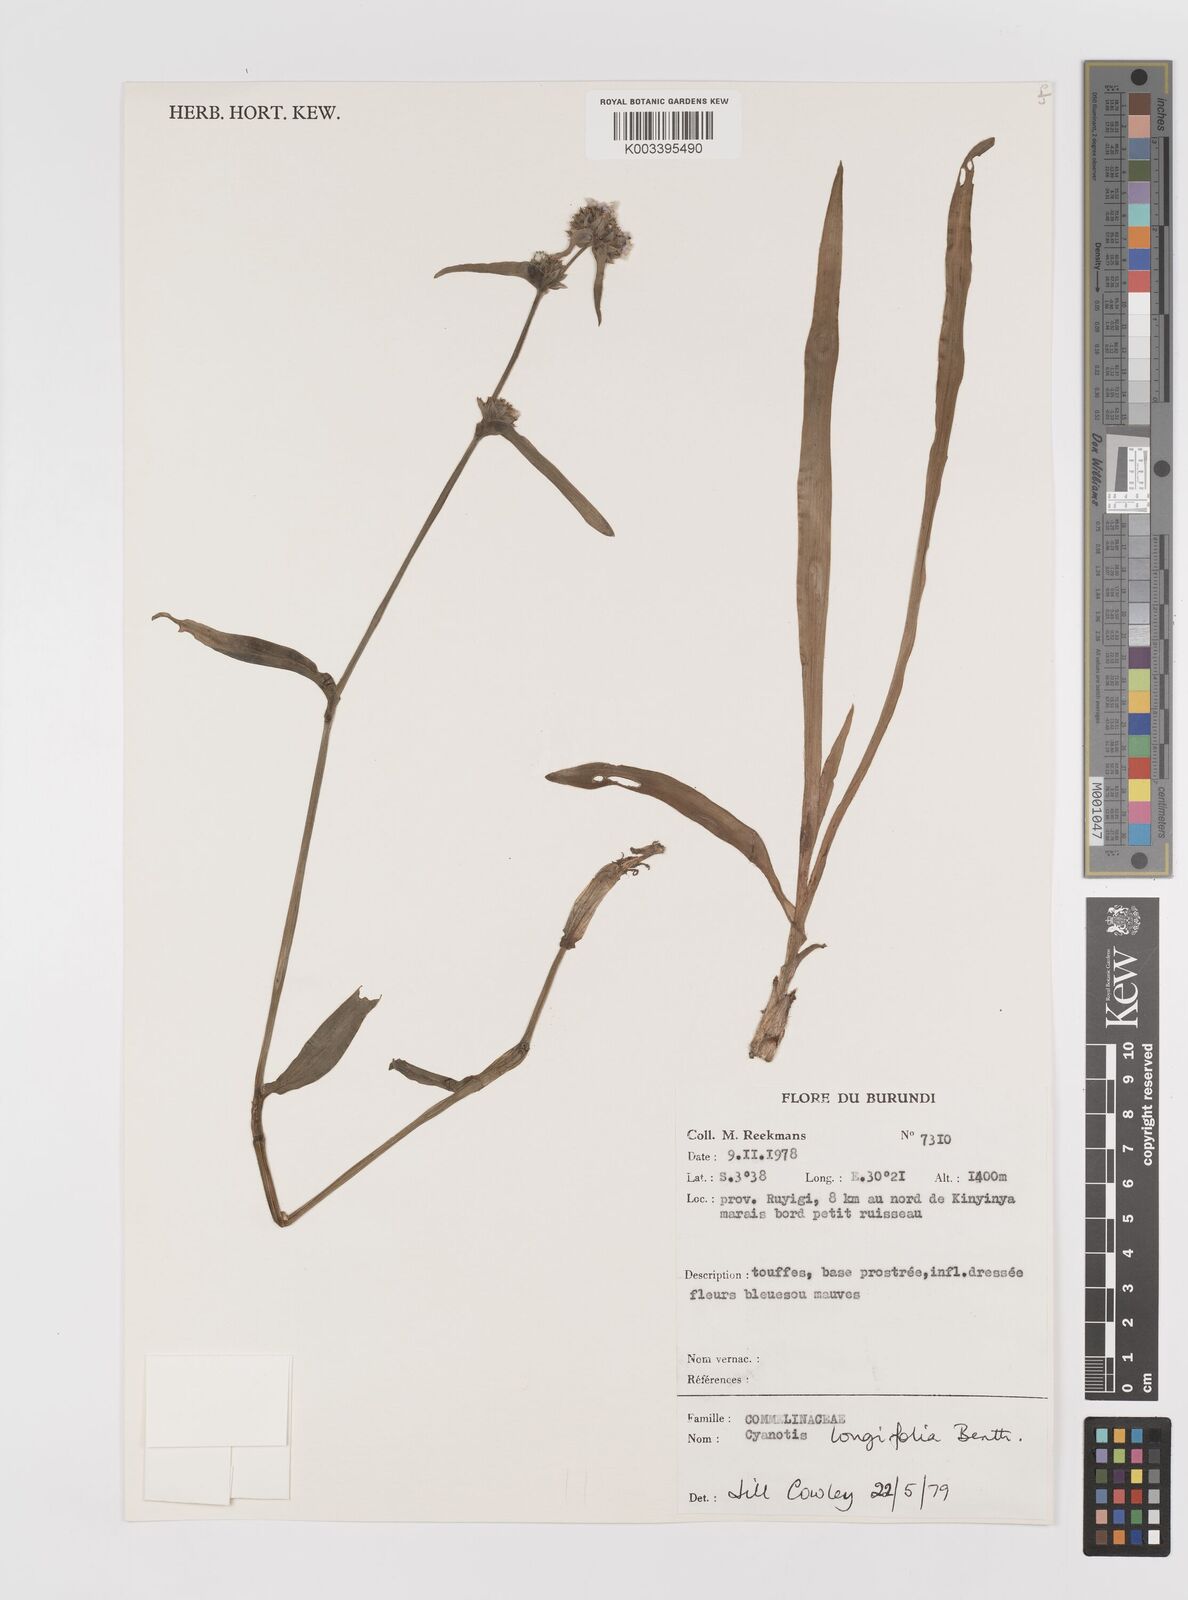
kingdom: Plantae
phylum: Tracheophyta
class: Liliopsida
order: Commelinales
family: Commelinaceae
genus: Cyanotis
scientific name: Cyanotis longifolia
